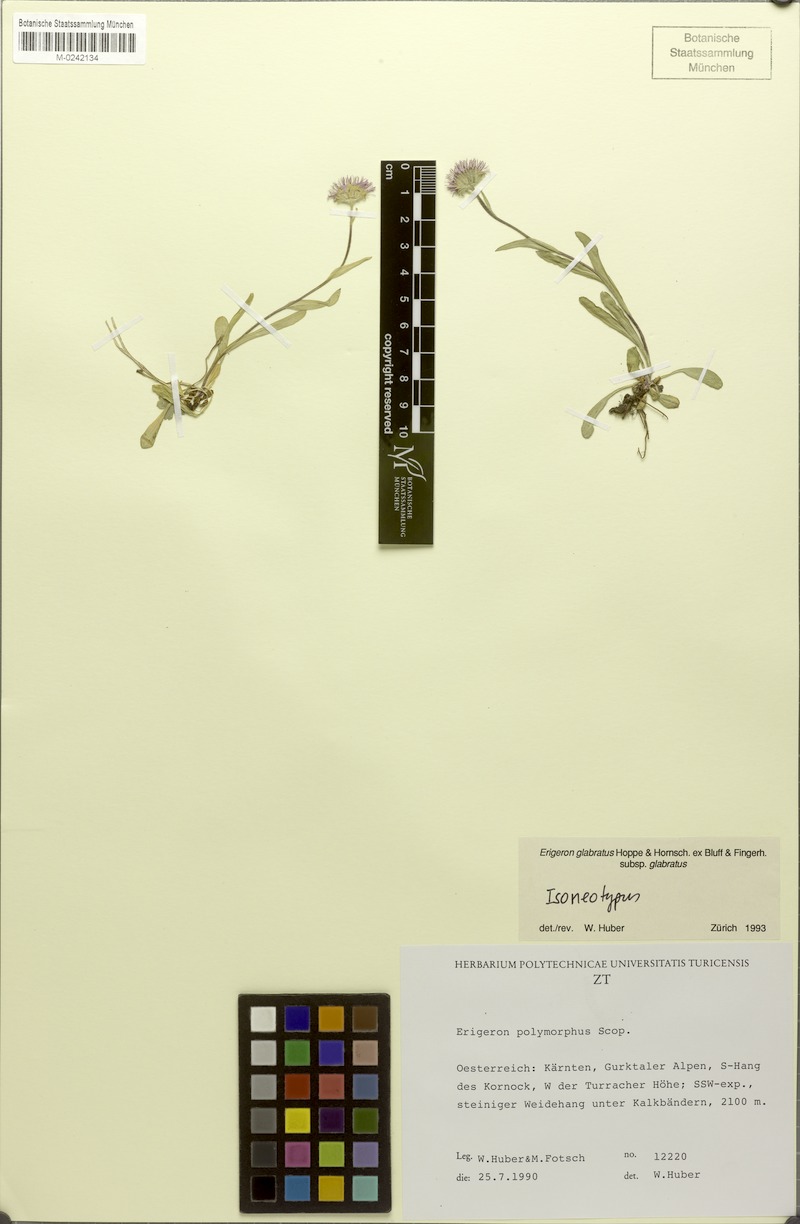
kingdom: Plantae
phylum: Tracheophyta
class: Magnoliopsida
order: Asterales
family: Asteraceae
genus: Erigeron
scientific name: Erigeron glabratus
